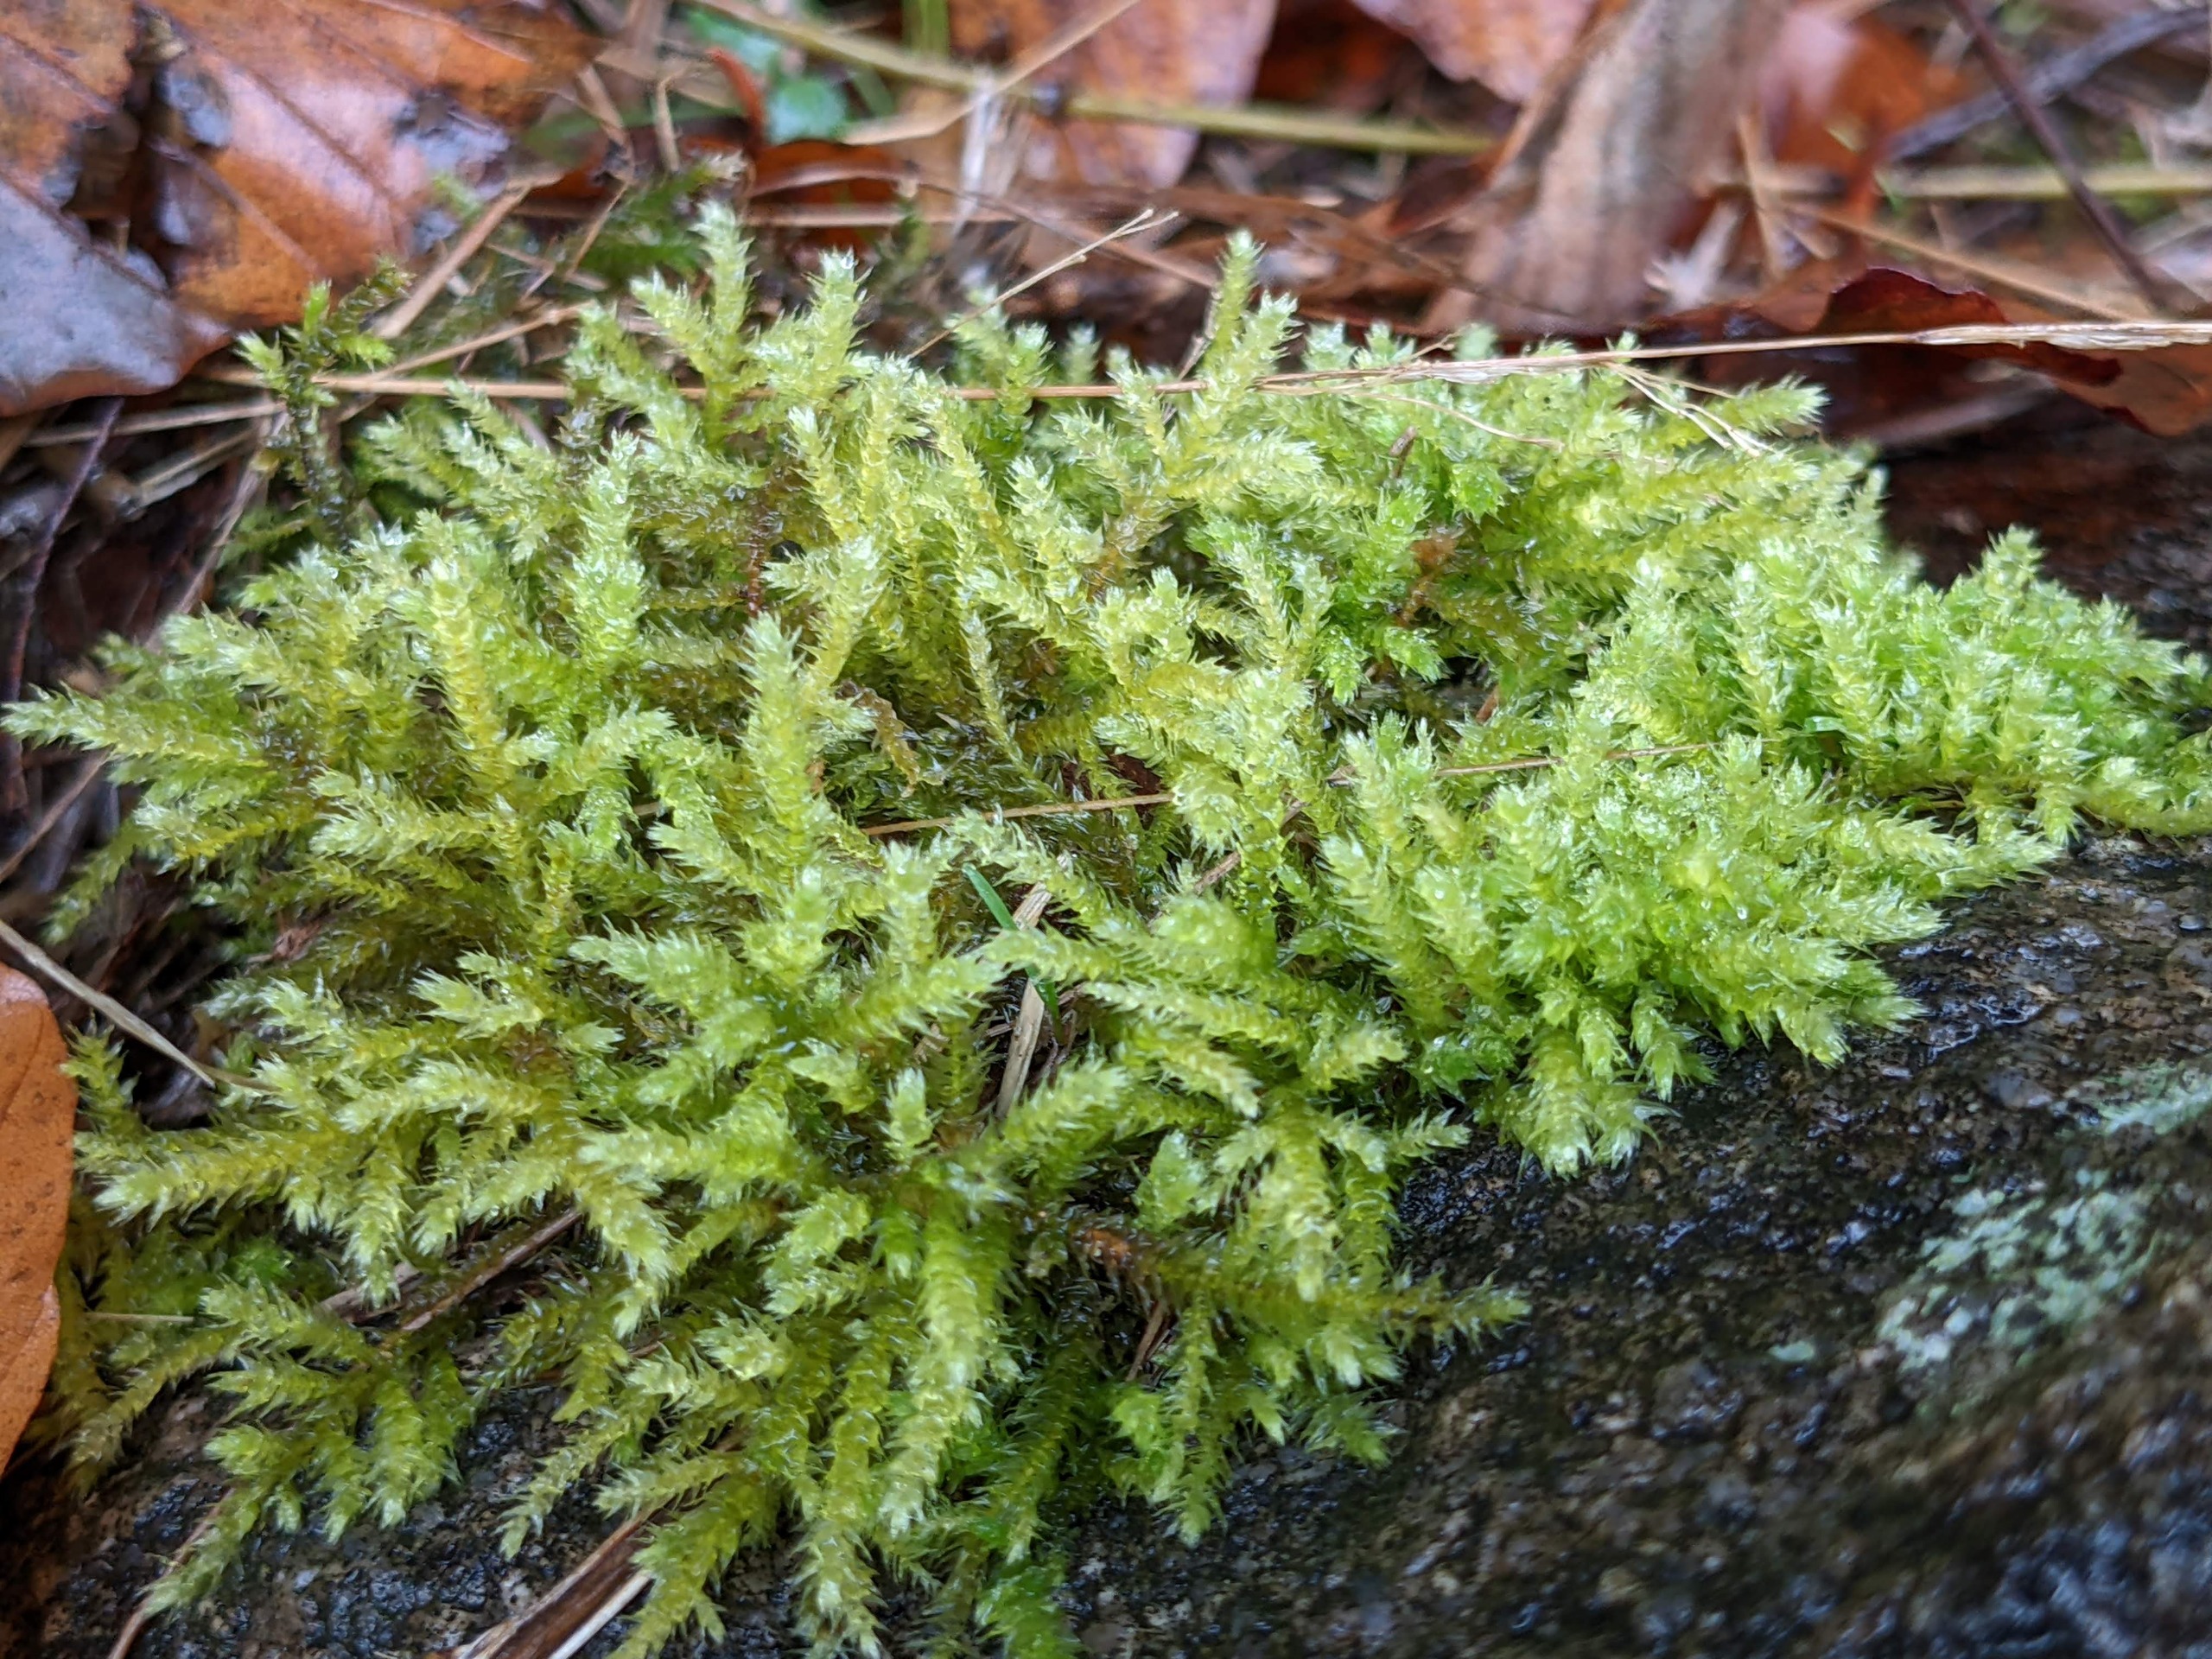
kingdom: Plantae
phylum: Bryophyta
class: Bryopsida
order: Hypnales
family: Brachytheciaceae
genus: Eurhynchium
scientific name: Eurhynchium striatum
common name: Stribet næbmos
